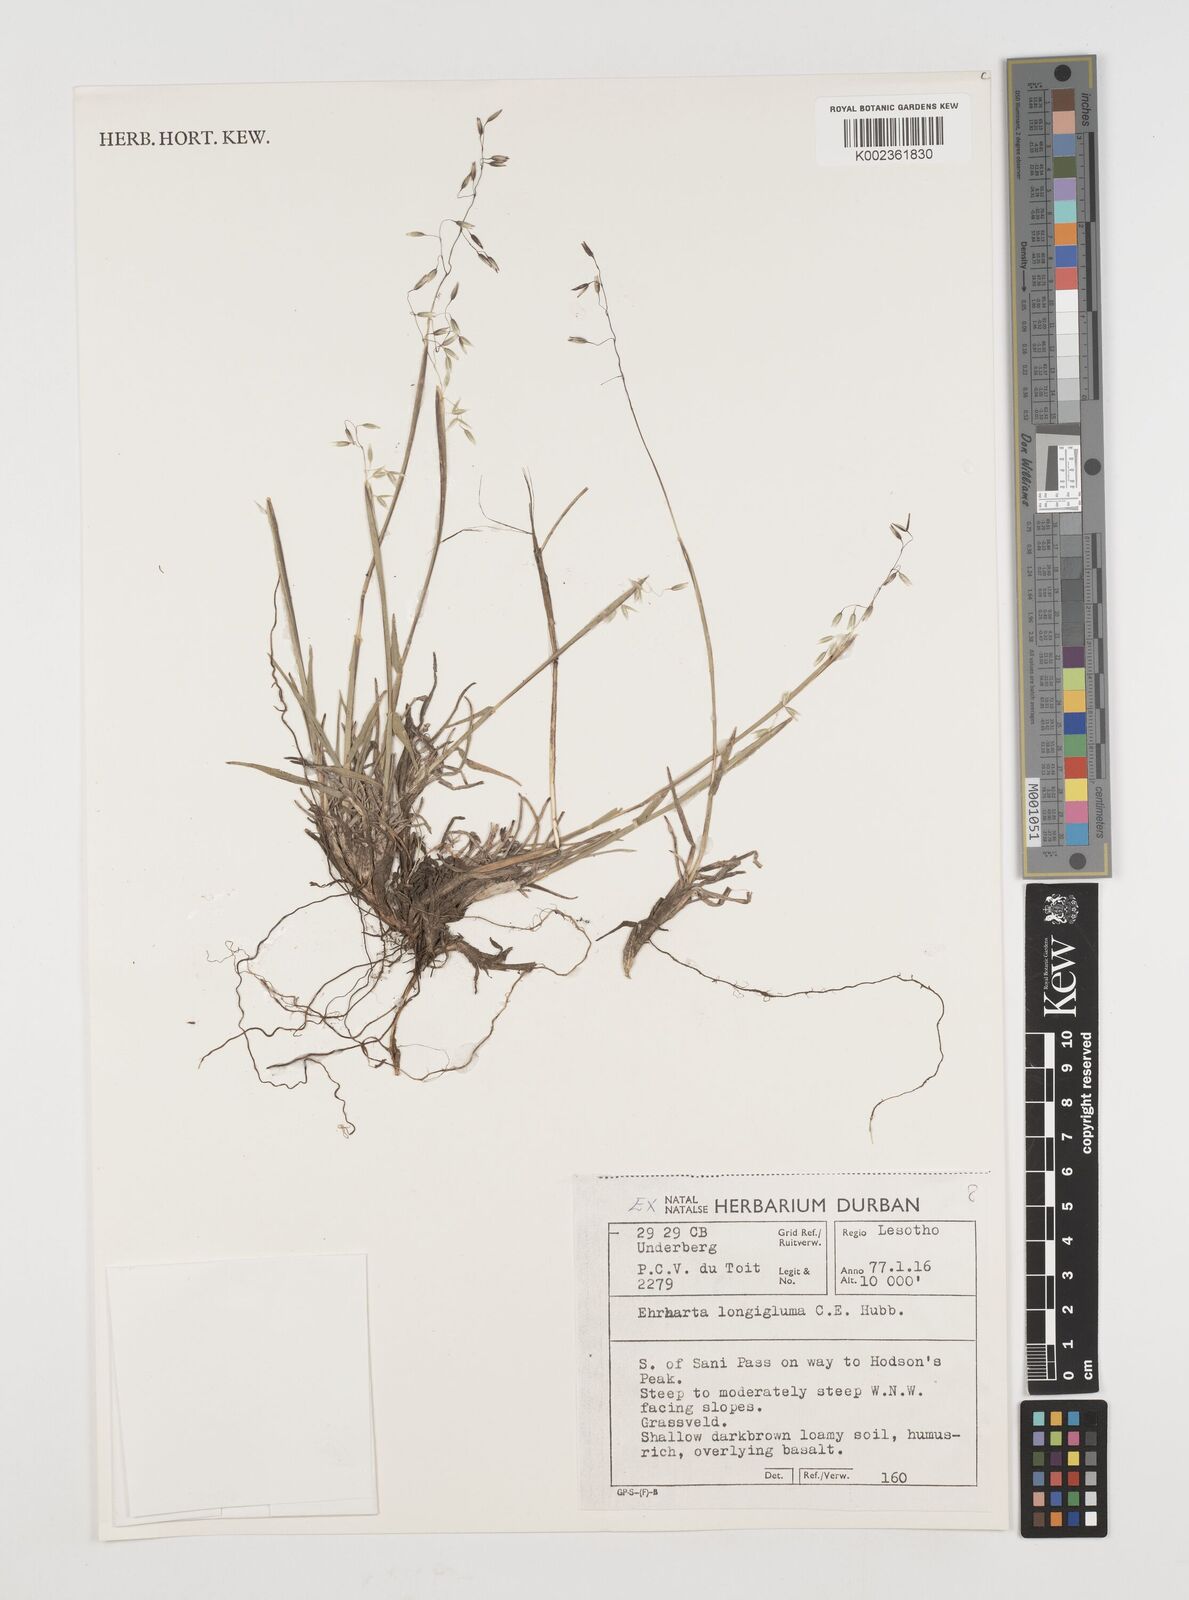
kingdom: Plantae
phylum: Tracheophyta
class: Liliopsida
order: Poales
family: Poaceae
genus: Ehrharta
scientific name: Ehrharta longigluma
